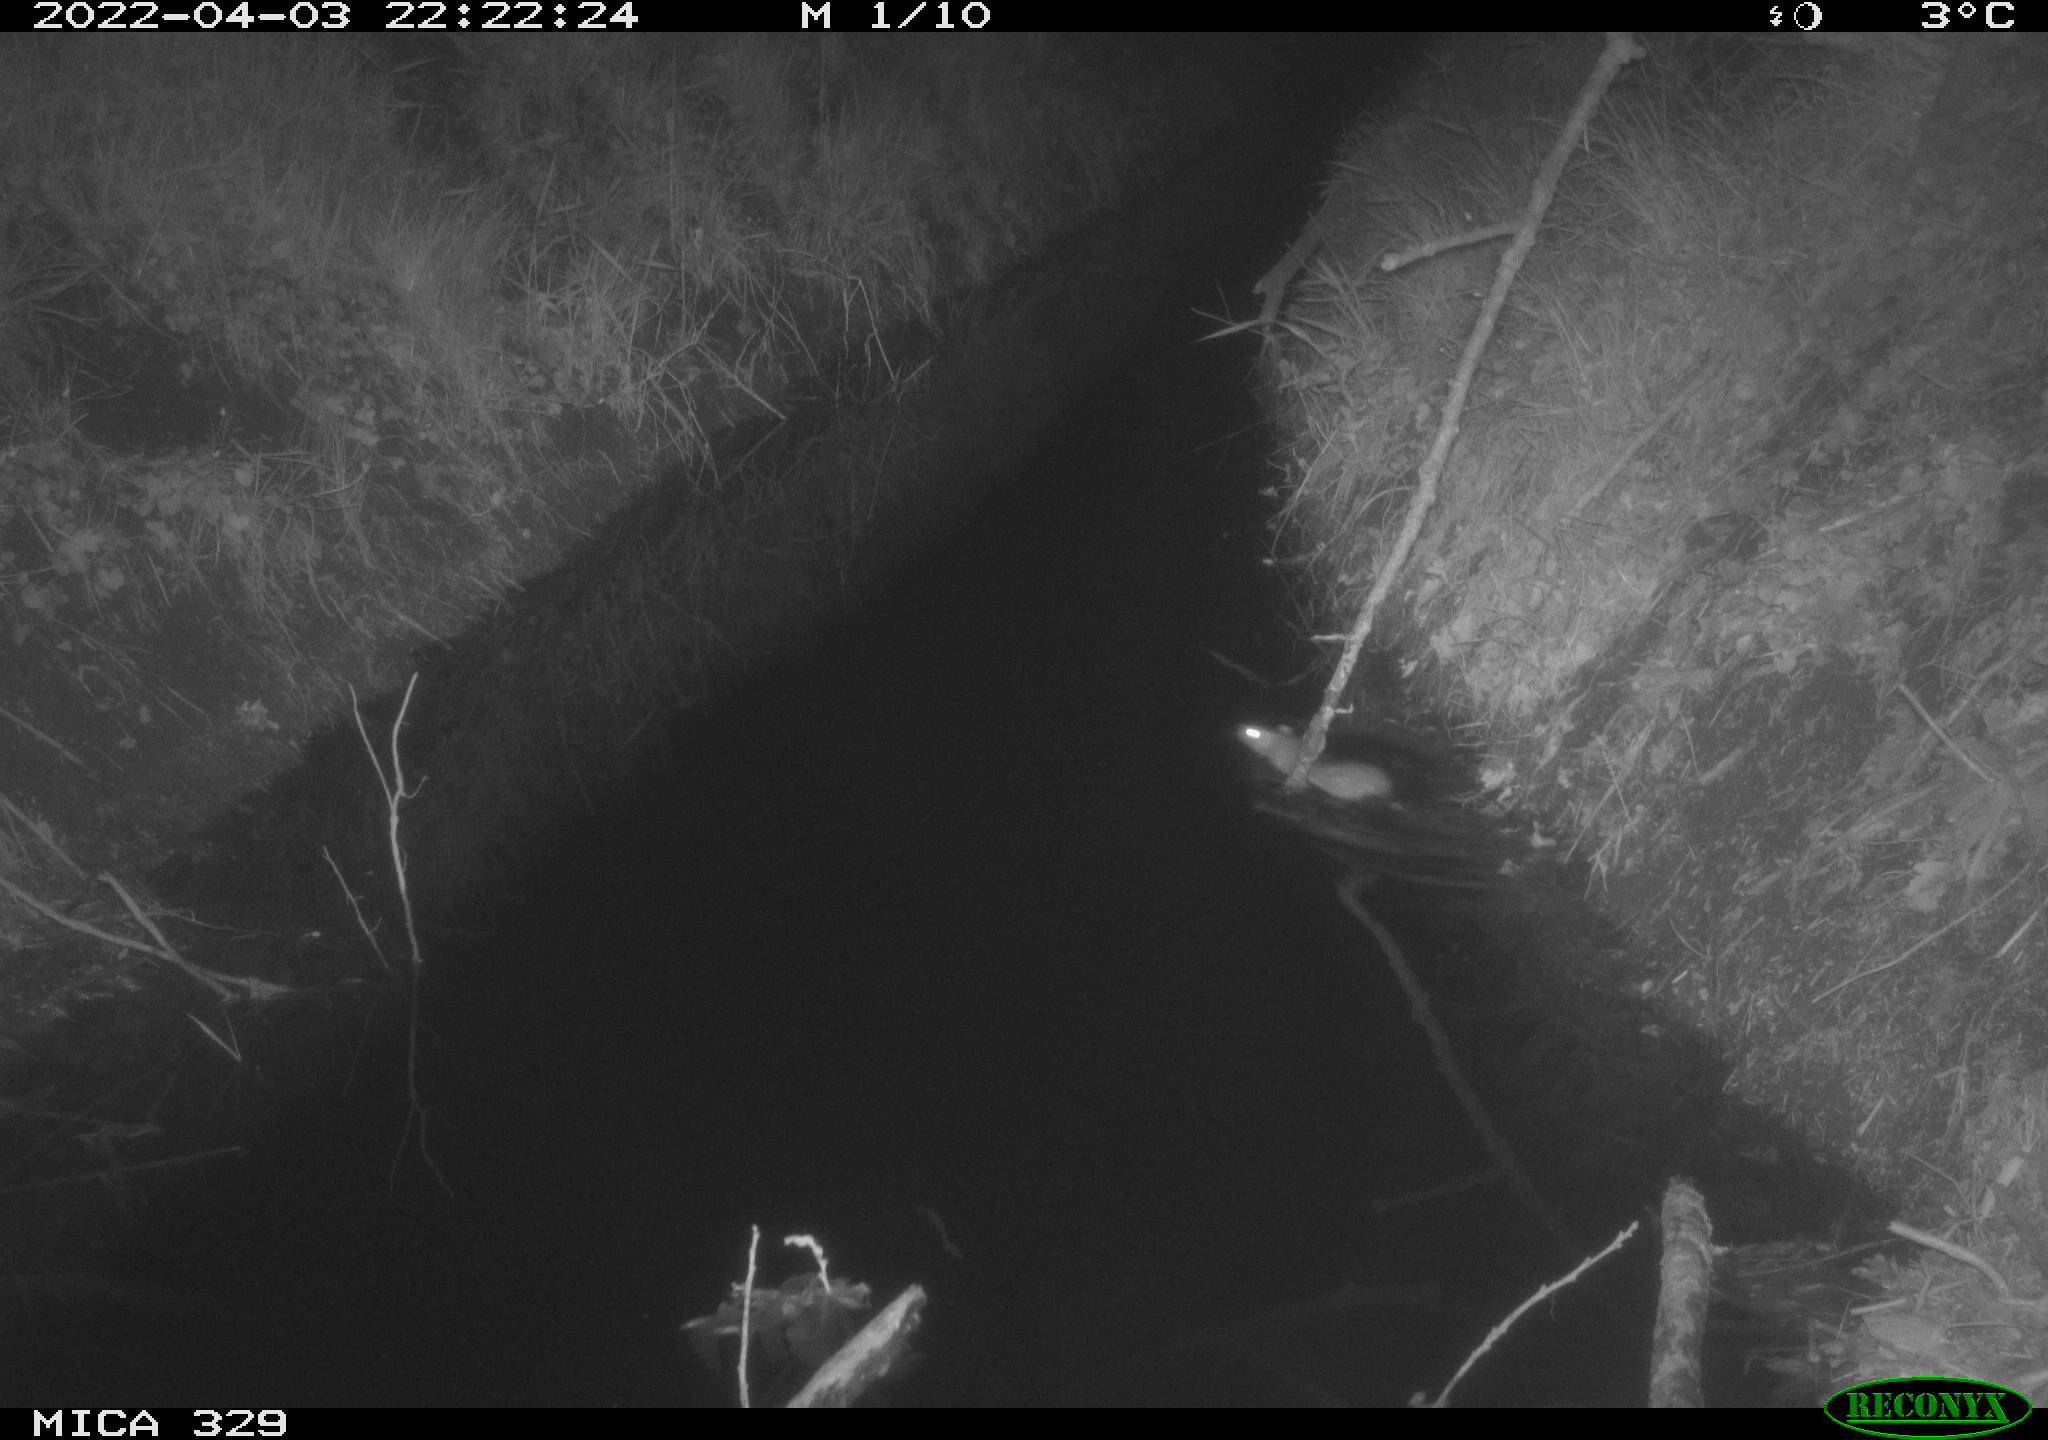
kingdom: Animalia
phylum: Chordata
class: Mammalia
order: Rodentia
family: Muridae
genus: Rattus
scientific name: Rattus norvegicus
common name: Brown rat
